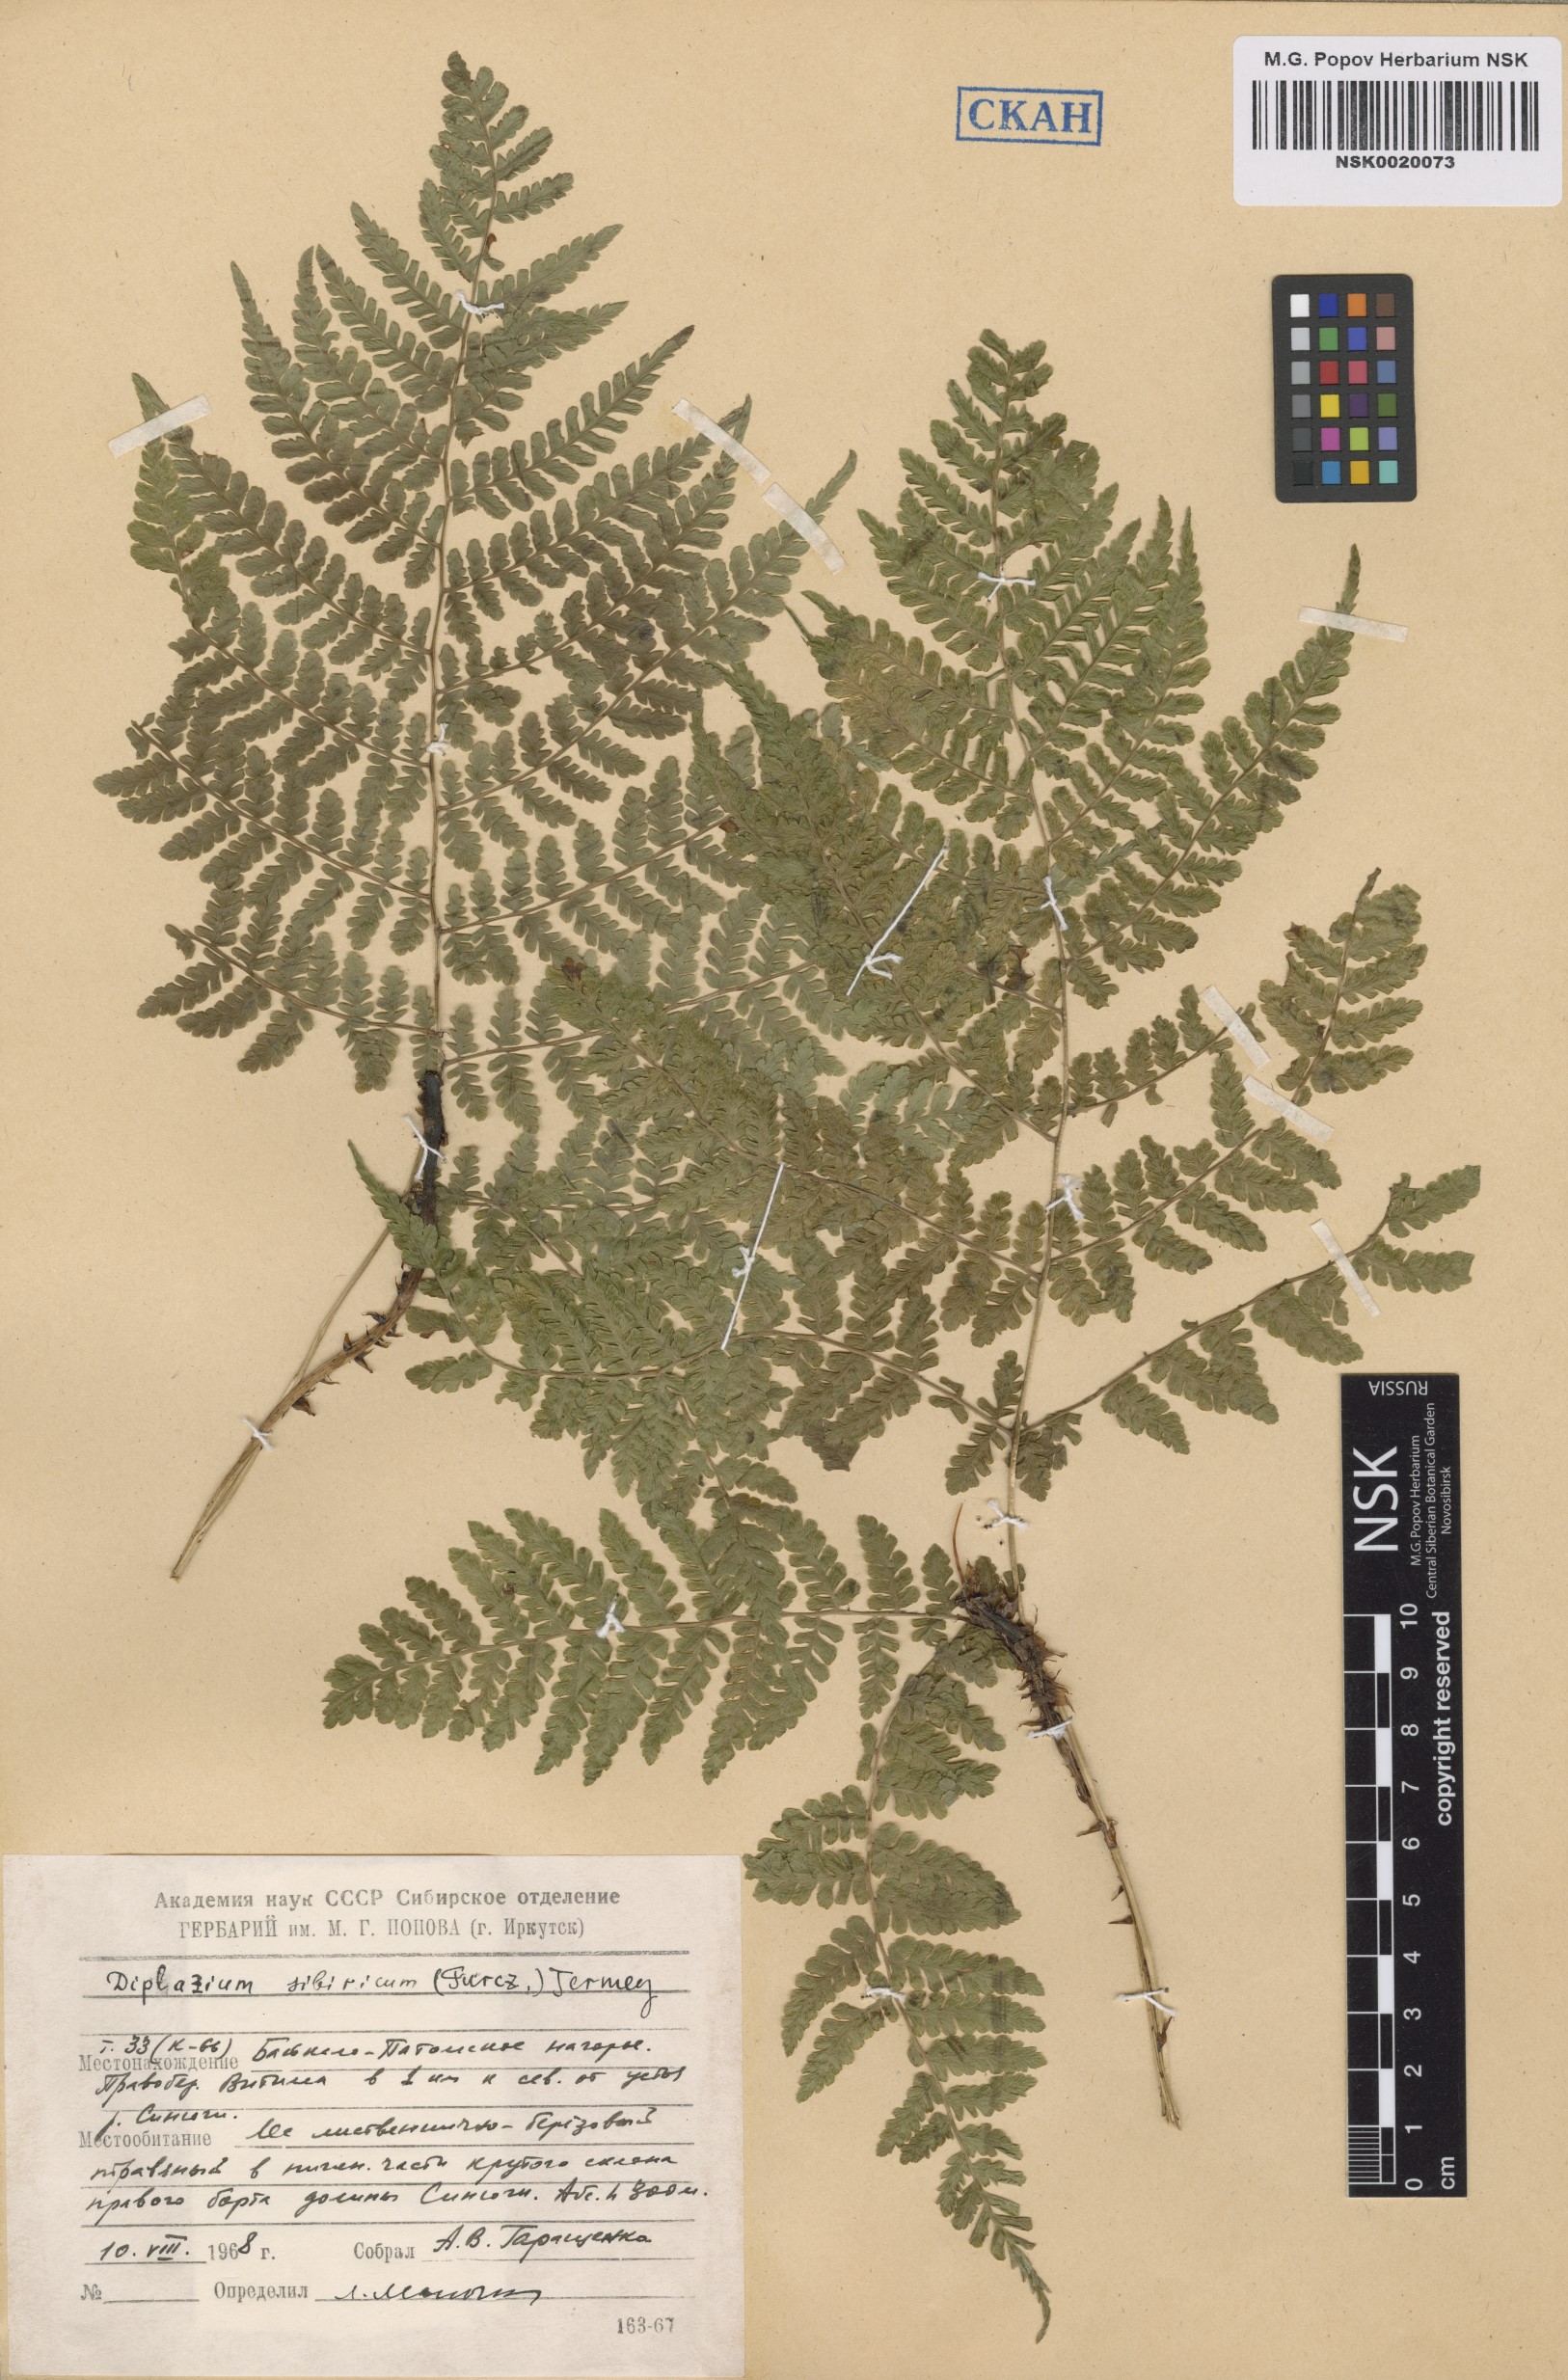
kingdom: Plantae
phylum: Tracheophyta
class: Polypodiopsida
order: Polypodiales
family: Athyriaceae
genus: Diplazium
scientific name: Diplazium sibiricum
